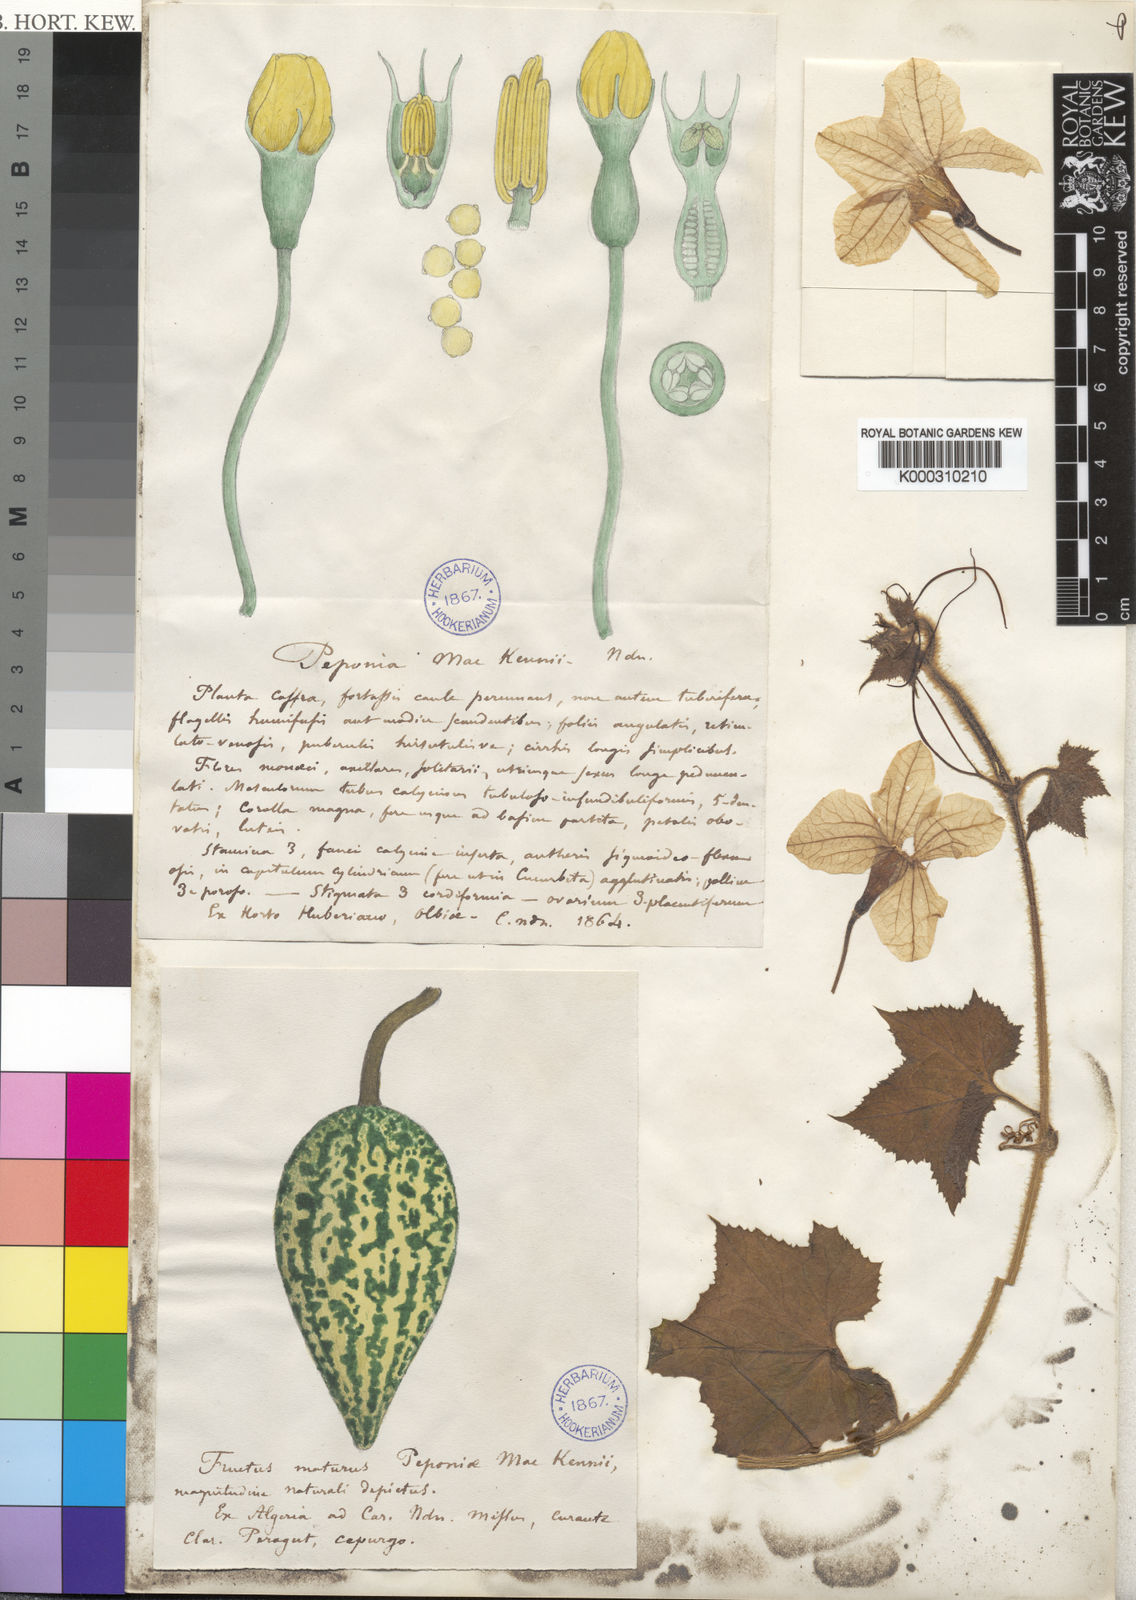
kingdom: Plantae
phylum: Tracheophyta
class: Magnoliopsida
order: Cucurbitales
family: Cucurbitaceae
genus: Peponium
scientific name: Peponium mackenii
